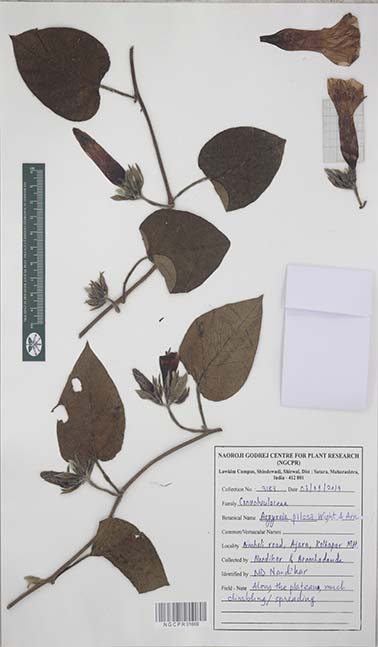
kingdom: Plantae
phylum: Tracheophyta
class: Magnoliopsida
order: Solanales
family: Convolvulaceae
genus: Argyreia
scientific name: Argyreia srinivasanii
